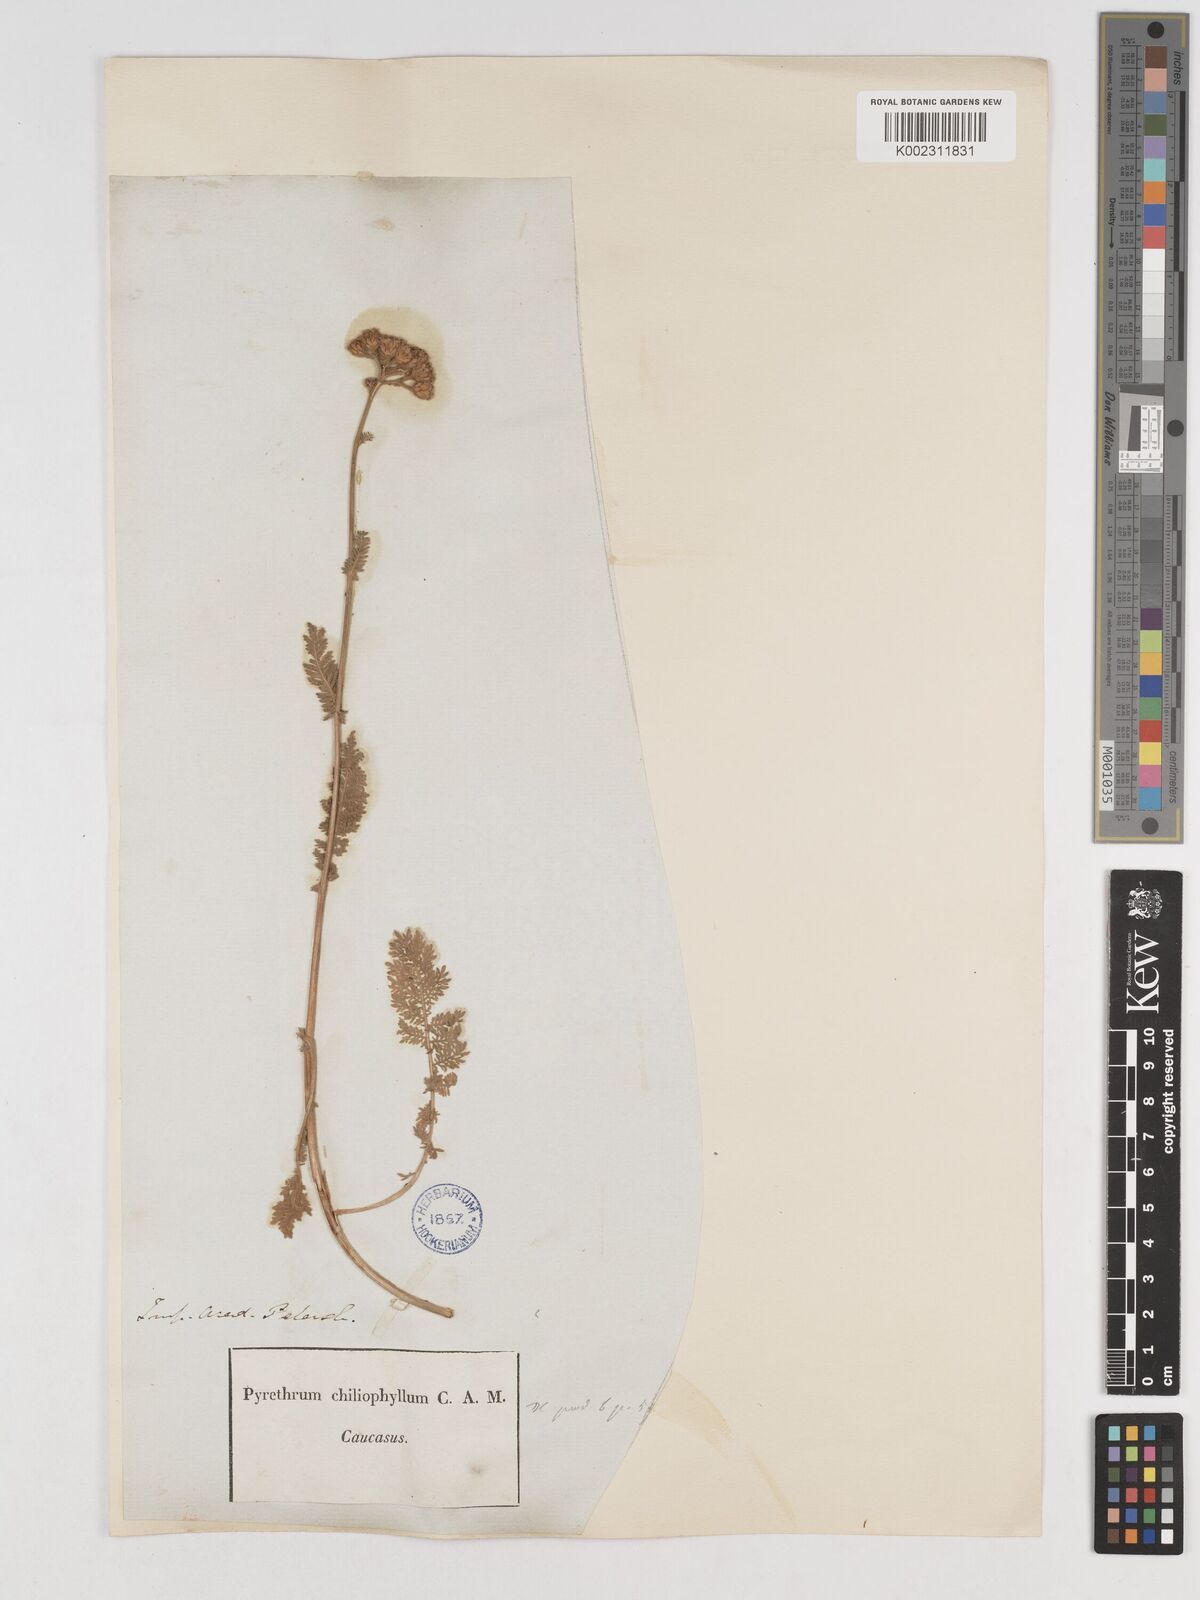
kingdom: Plantae
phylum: Tracheophyta
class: Magnoliopsida
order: Asterales
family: Asteraceae
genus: Tanacetum
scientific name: Tanacetum aureum
